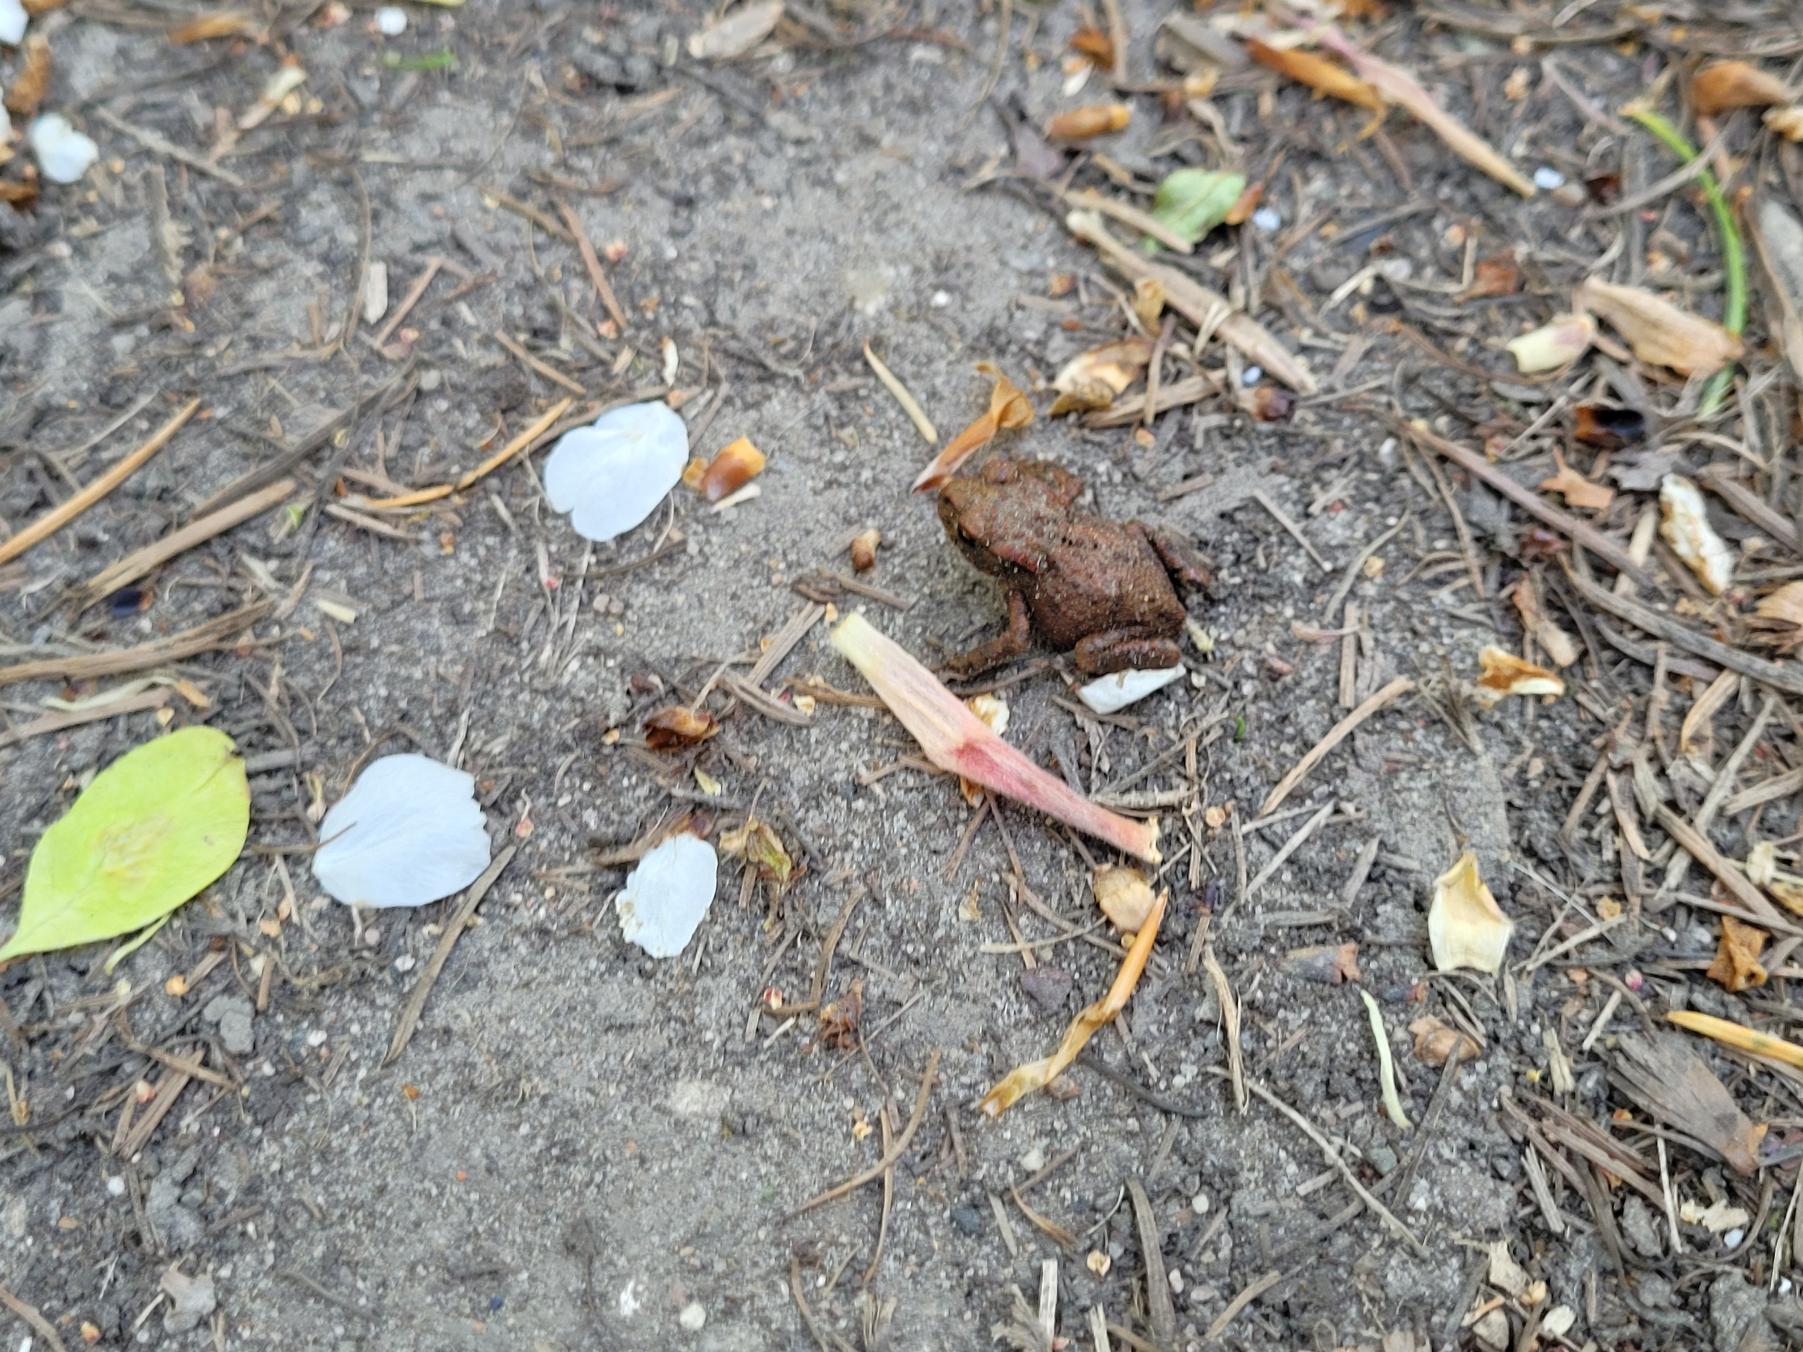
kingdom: Animalia
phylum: Chordata
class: Amphibia
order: Anura
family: Bufonidae
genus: Bufo
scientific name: Bufo bufo
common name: Skrubtudse
